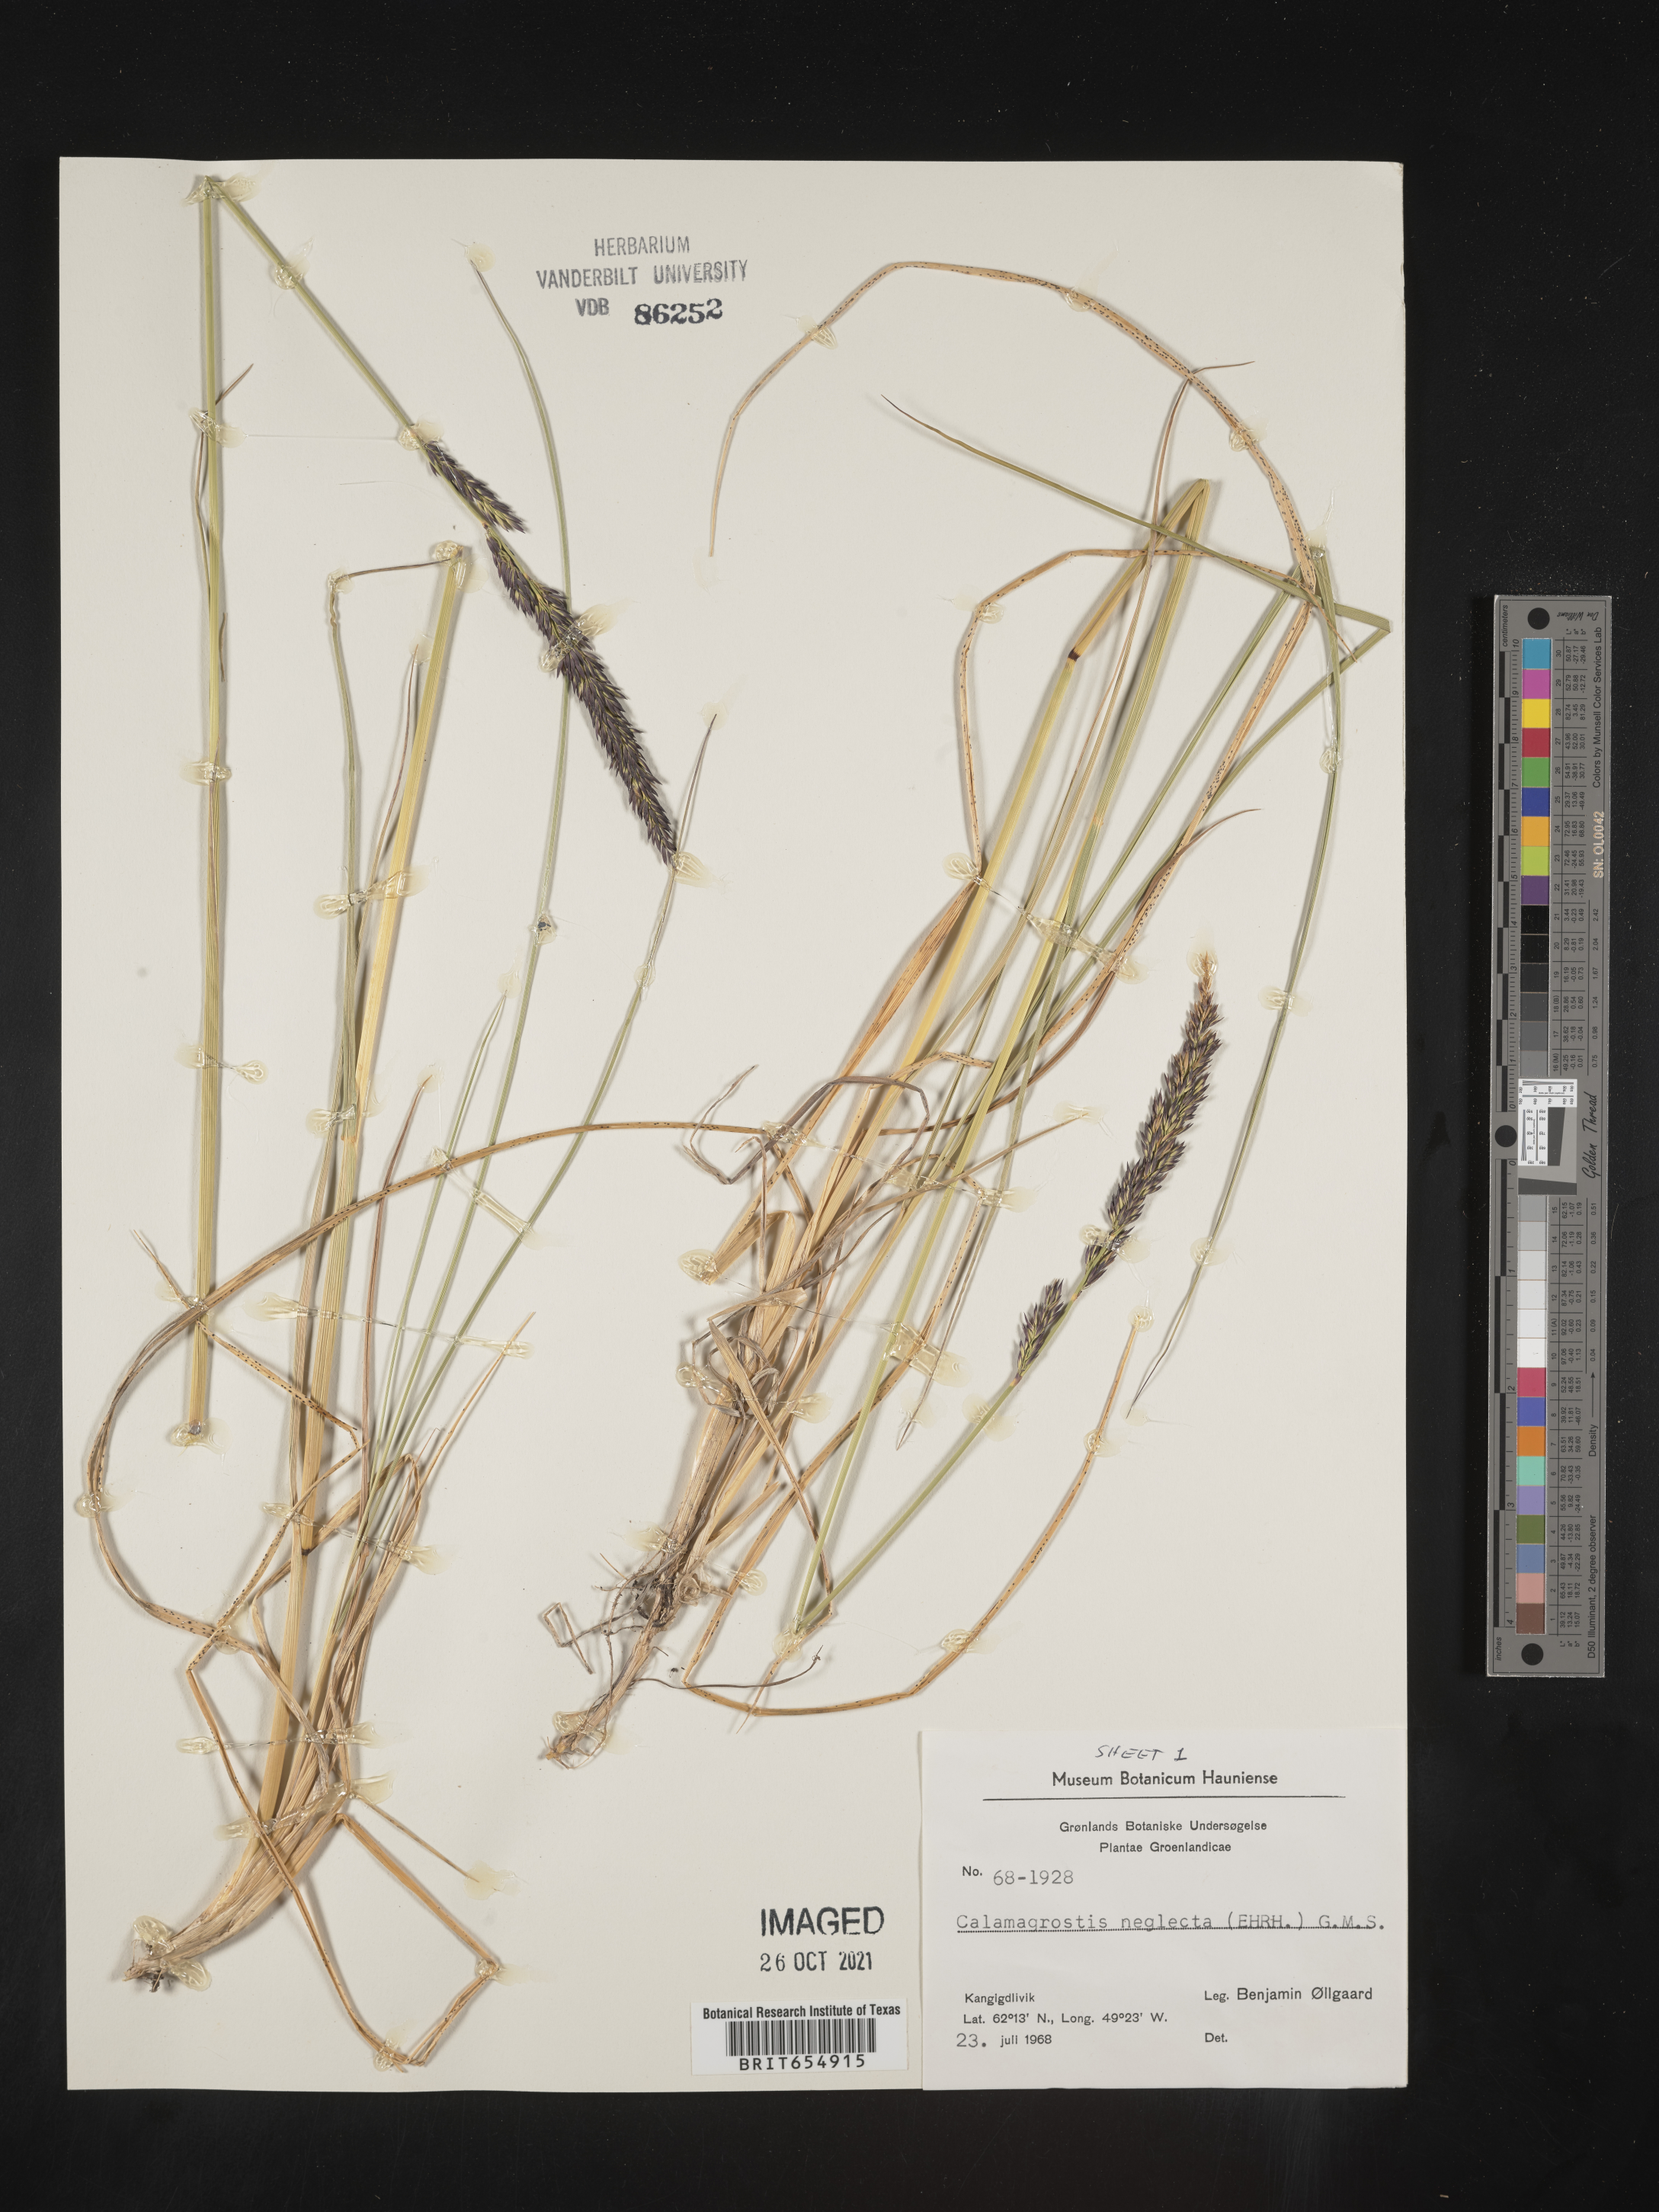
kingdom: Plantae
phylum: Tracheophyta
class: Liliopsida
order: Poales
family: Poaceae
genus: Calamagrostis
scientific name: Calamagrostis
